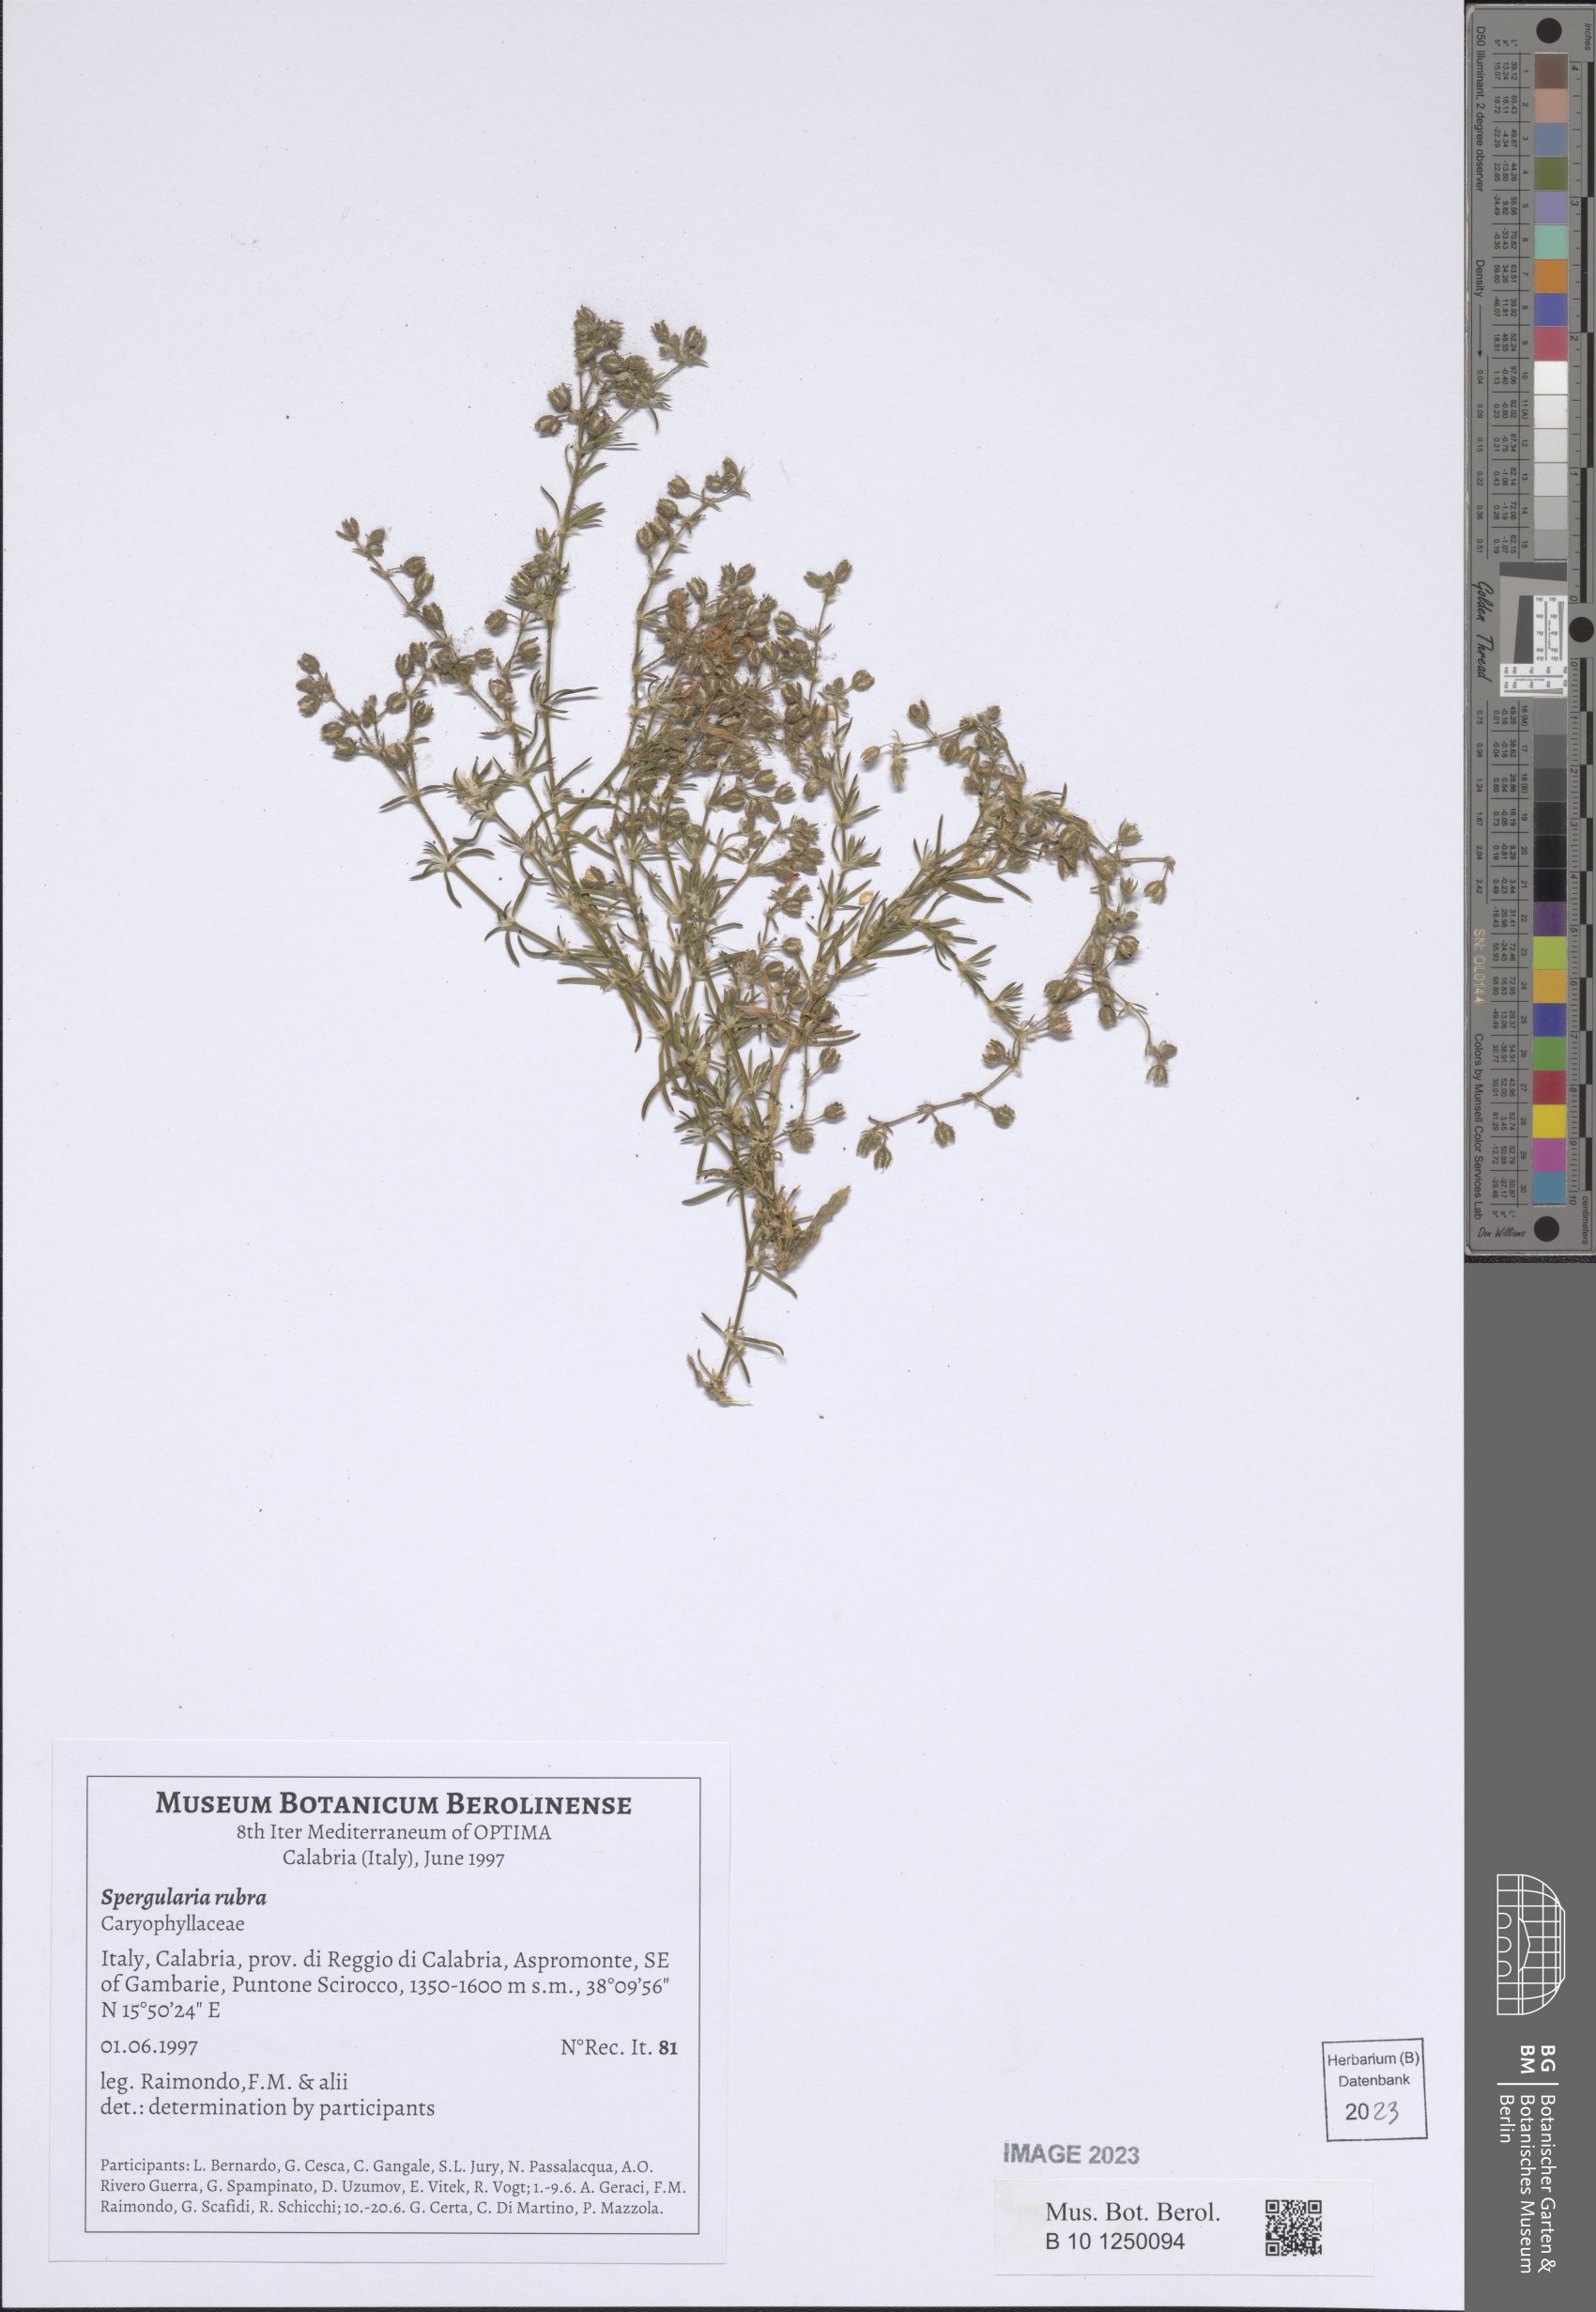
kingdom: Plantae
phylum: Tracheophyta
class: Magnoliopsida
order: Caryophyllales
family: Caryophyllaceae
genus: Spergularia
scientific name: Spergularia rubra
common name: Red sand-spurrey
